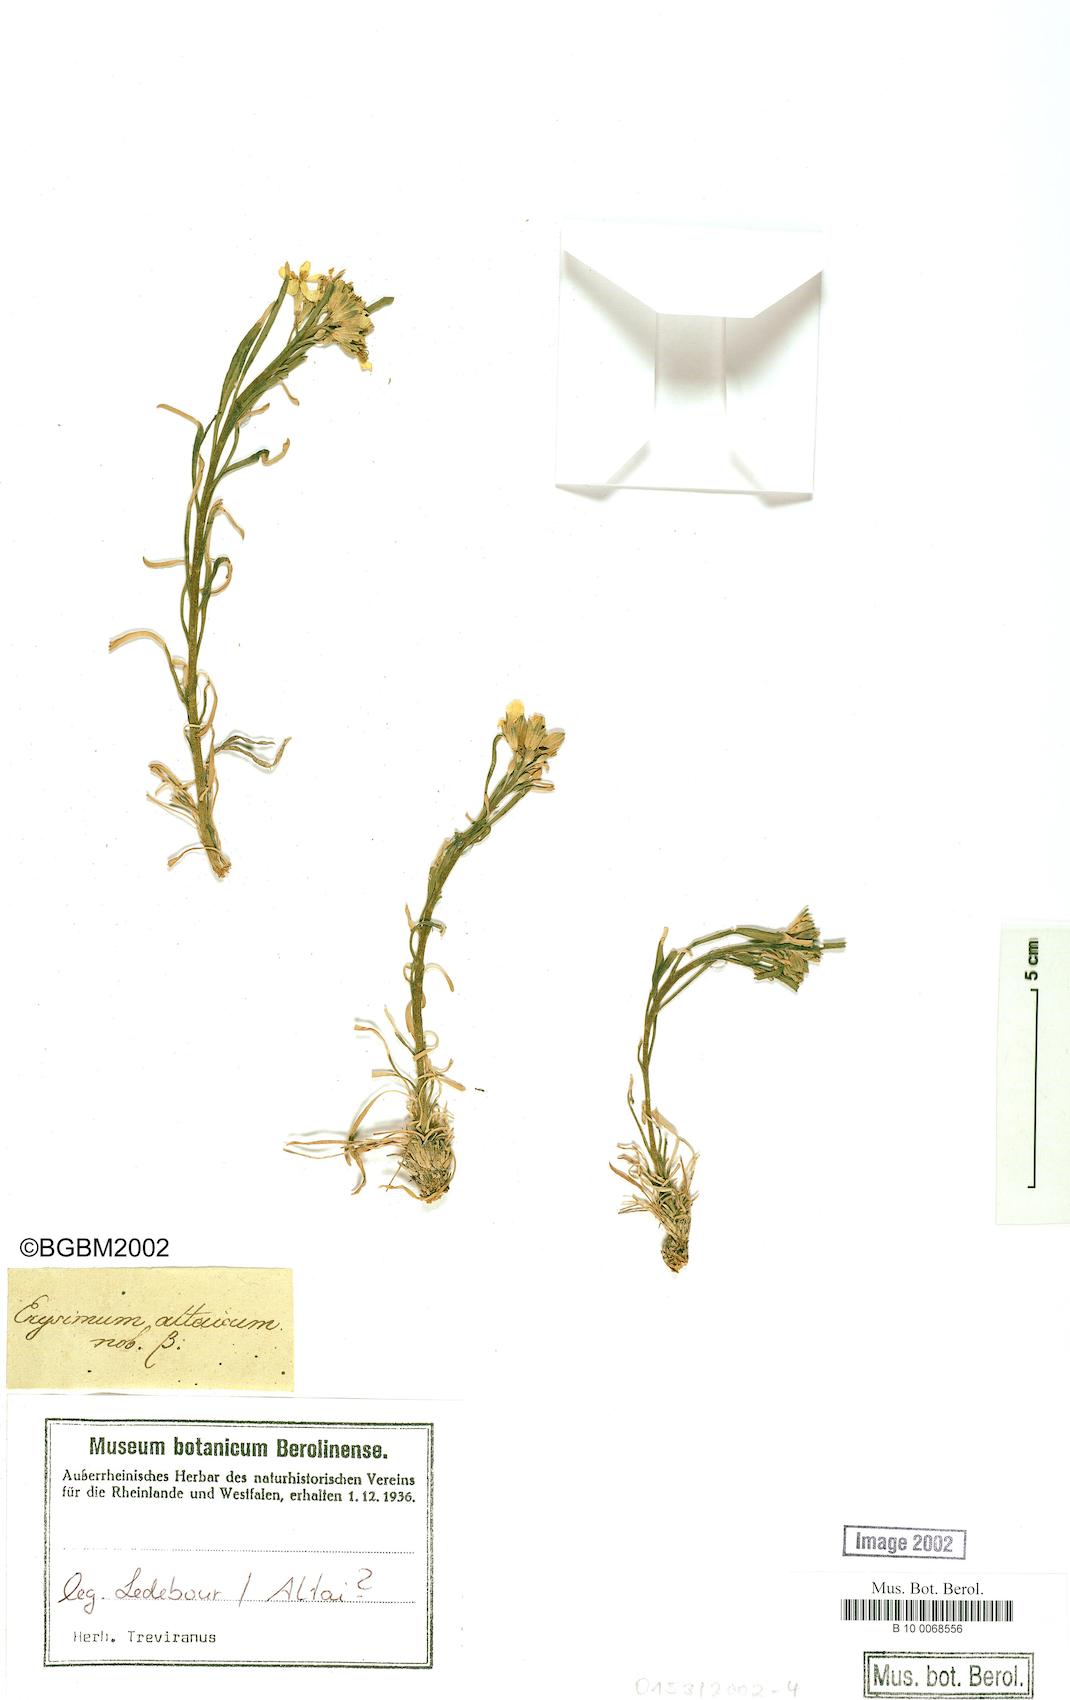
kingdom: Plantae
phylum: Tracheophyta
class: Magnoliopsida
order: Brassicales
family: Brassicaceae
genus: Erysimum
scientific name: Erysimum altaicum
